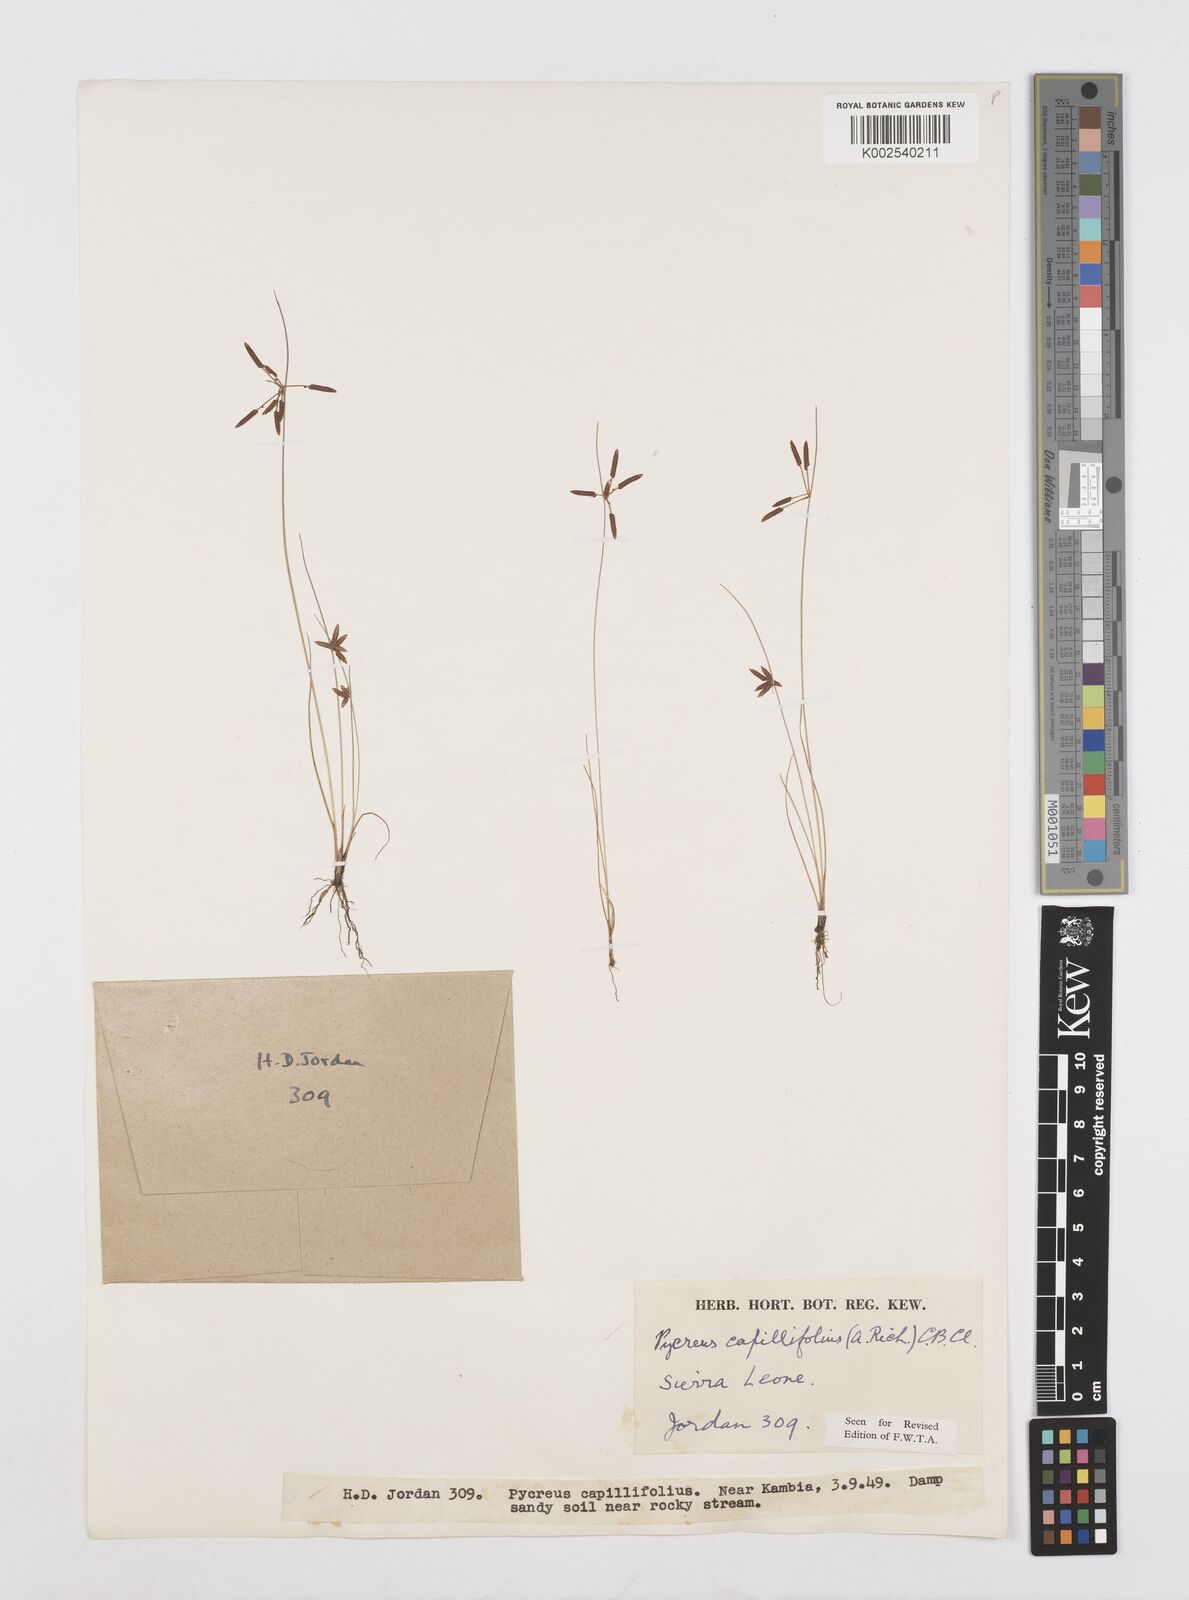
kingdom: Plantae
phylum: Tracheophyta
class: Liliopsida
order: Poales
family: Cyperaceae
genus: Cyperus
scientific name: Cyperus capillifolius
